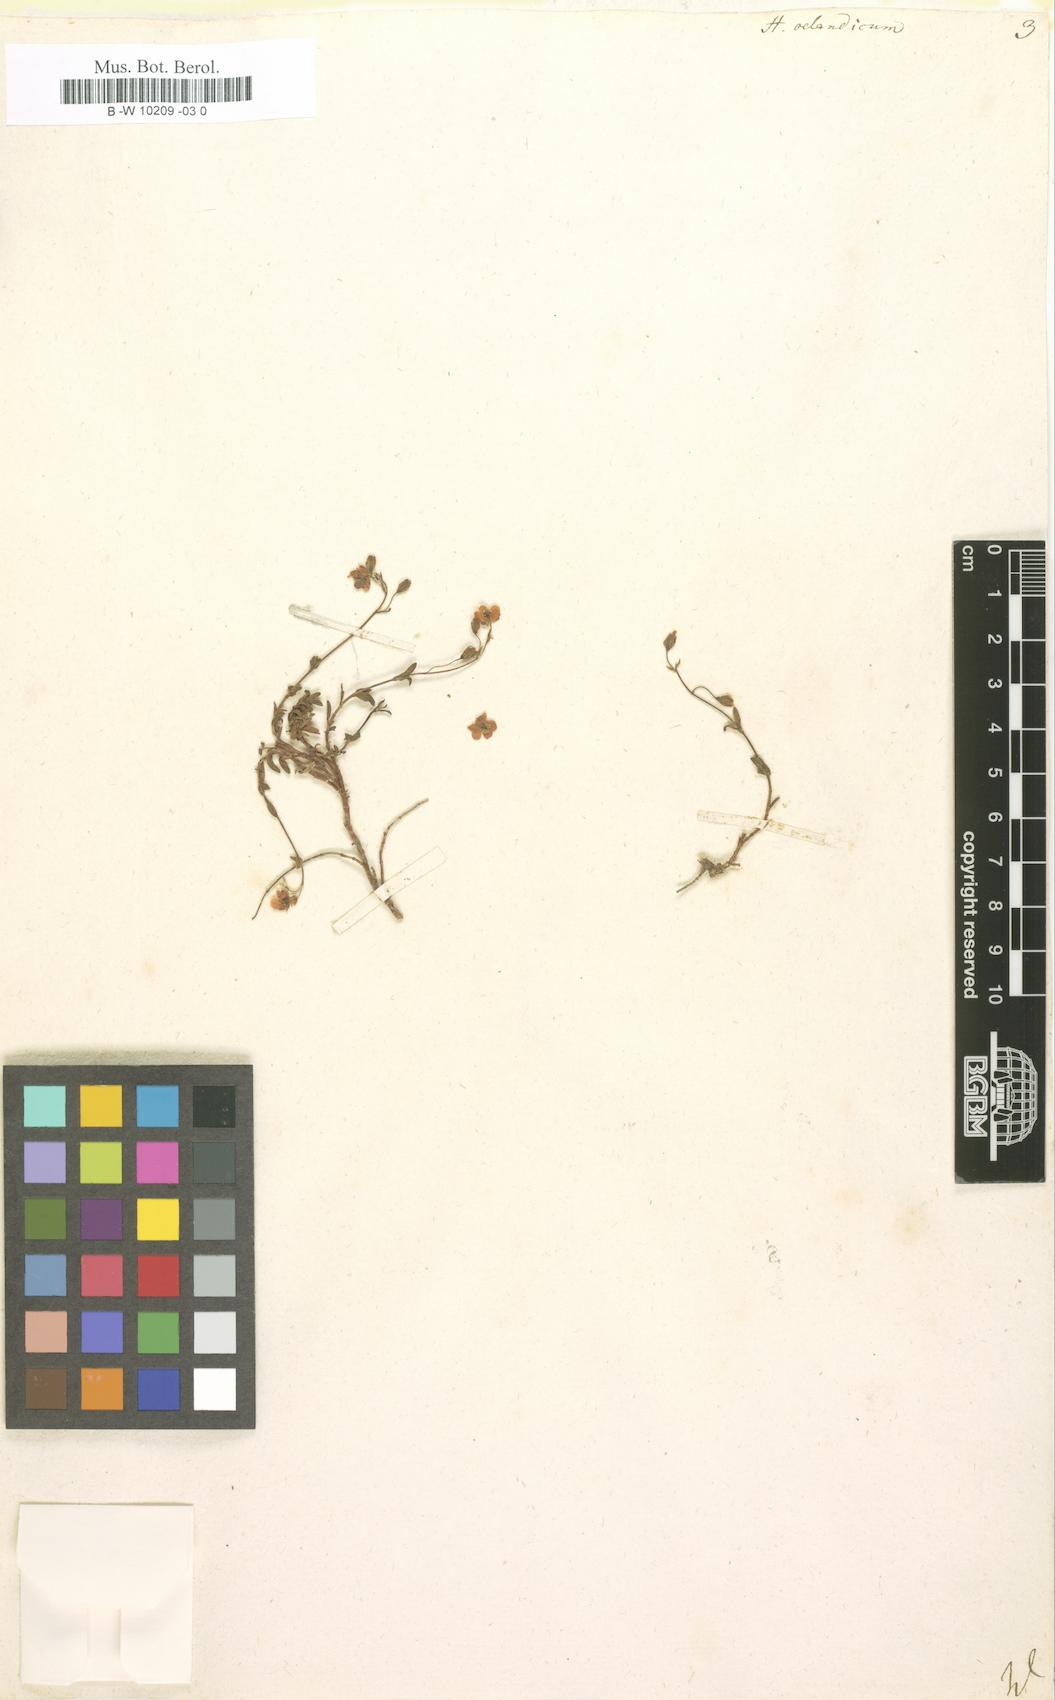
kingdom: Plantae
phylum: Tracheophyta
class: Magnoliopsida
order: Malvales
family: Cistaceae
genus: Helianthemum
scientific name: Helianthemum oelandicum
